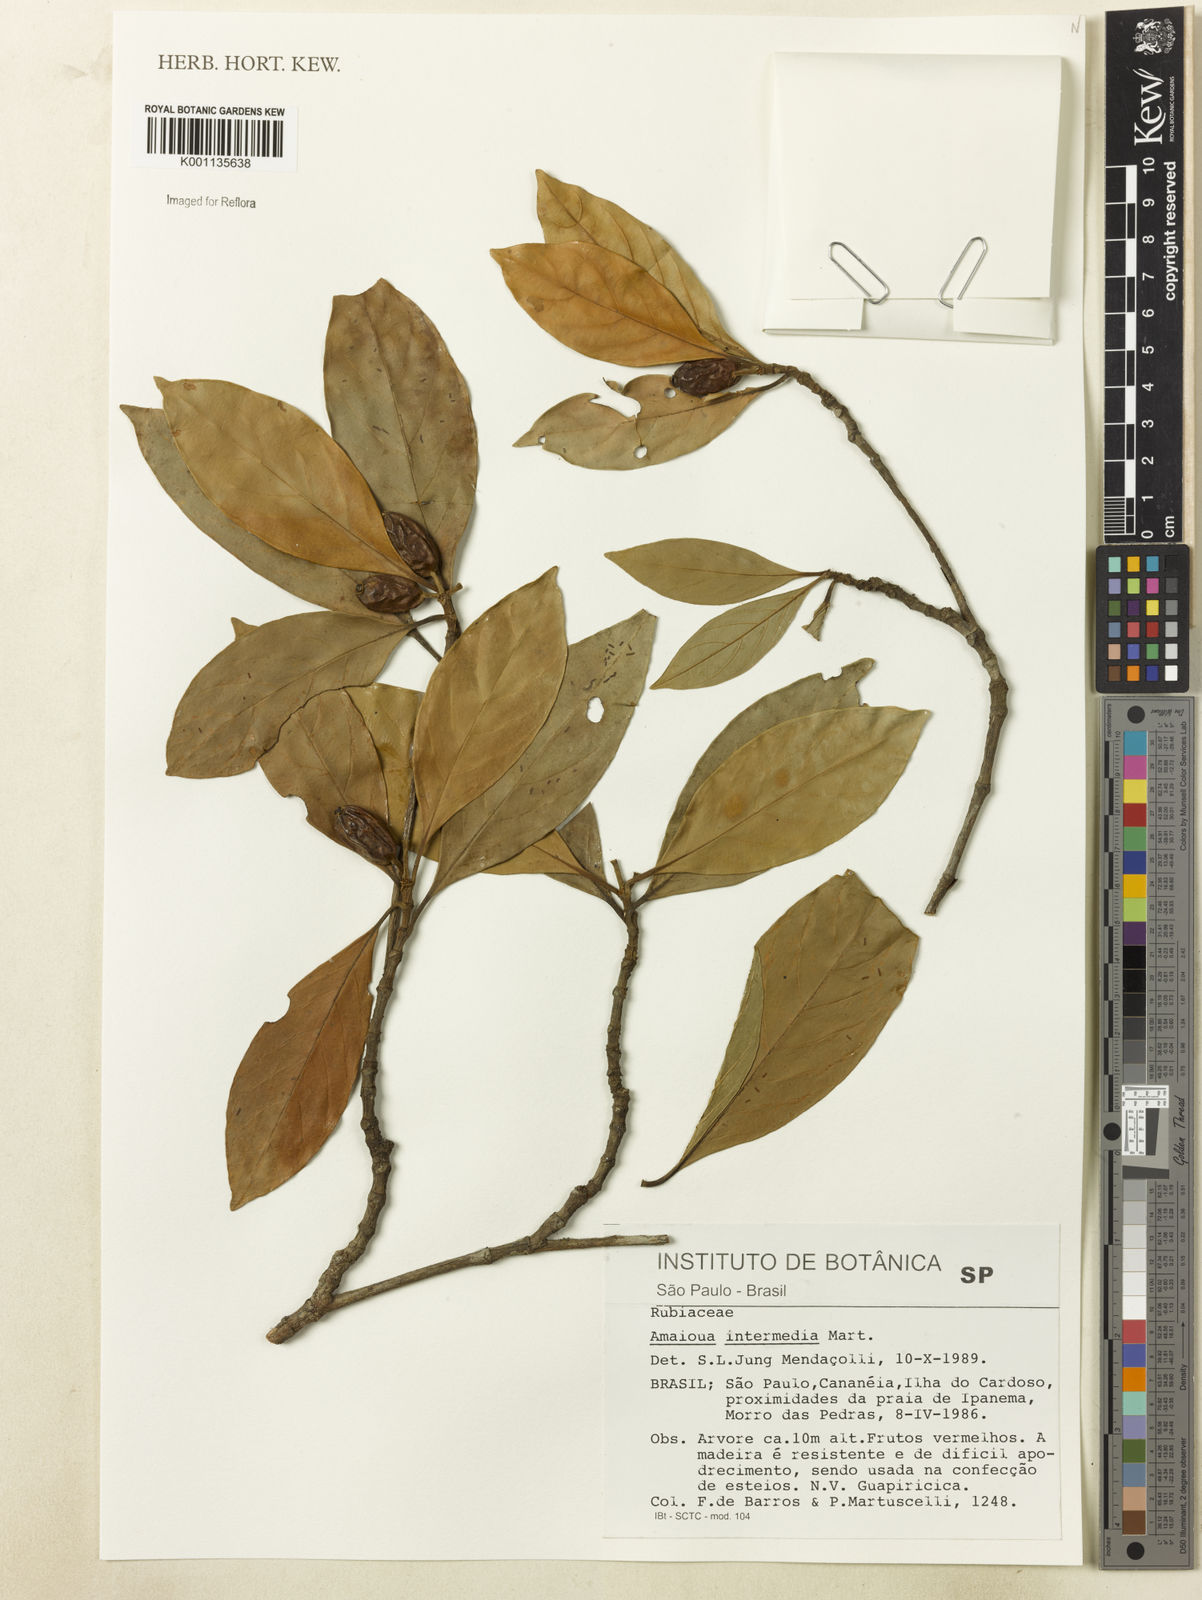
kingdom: Plantae
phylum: Tracheophyta
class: Magnoliopsida
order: Gentianales
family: Rubiaceae
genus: Amaioua
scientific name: Amaioua intermedia
